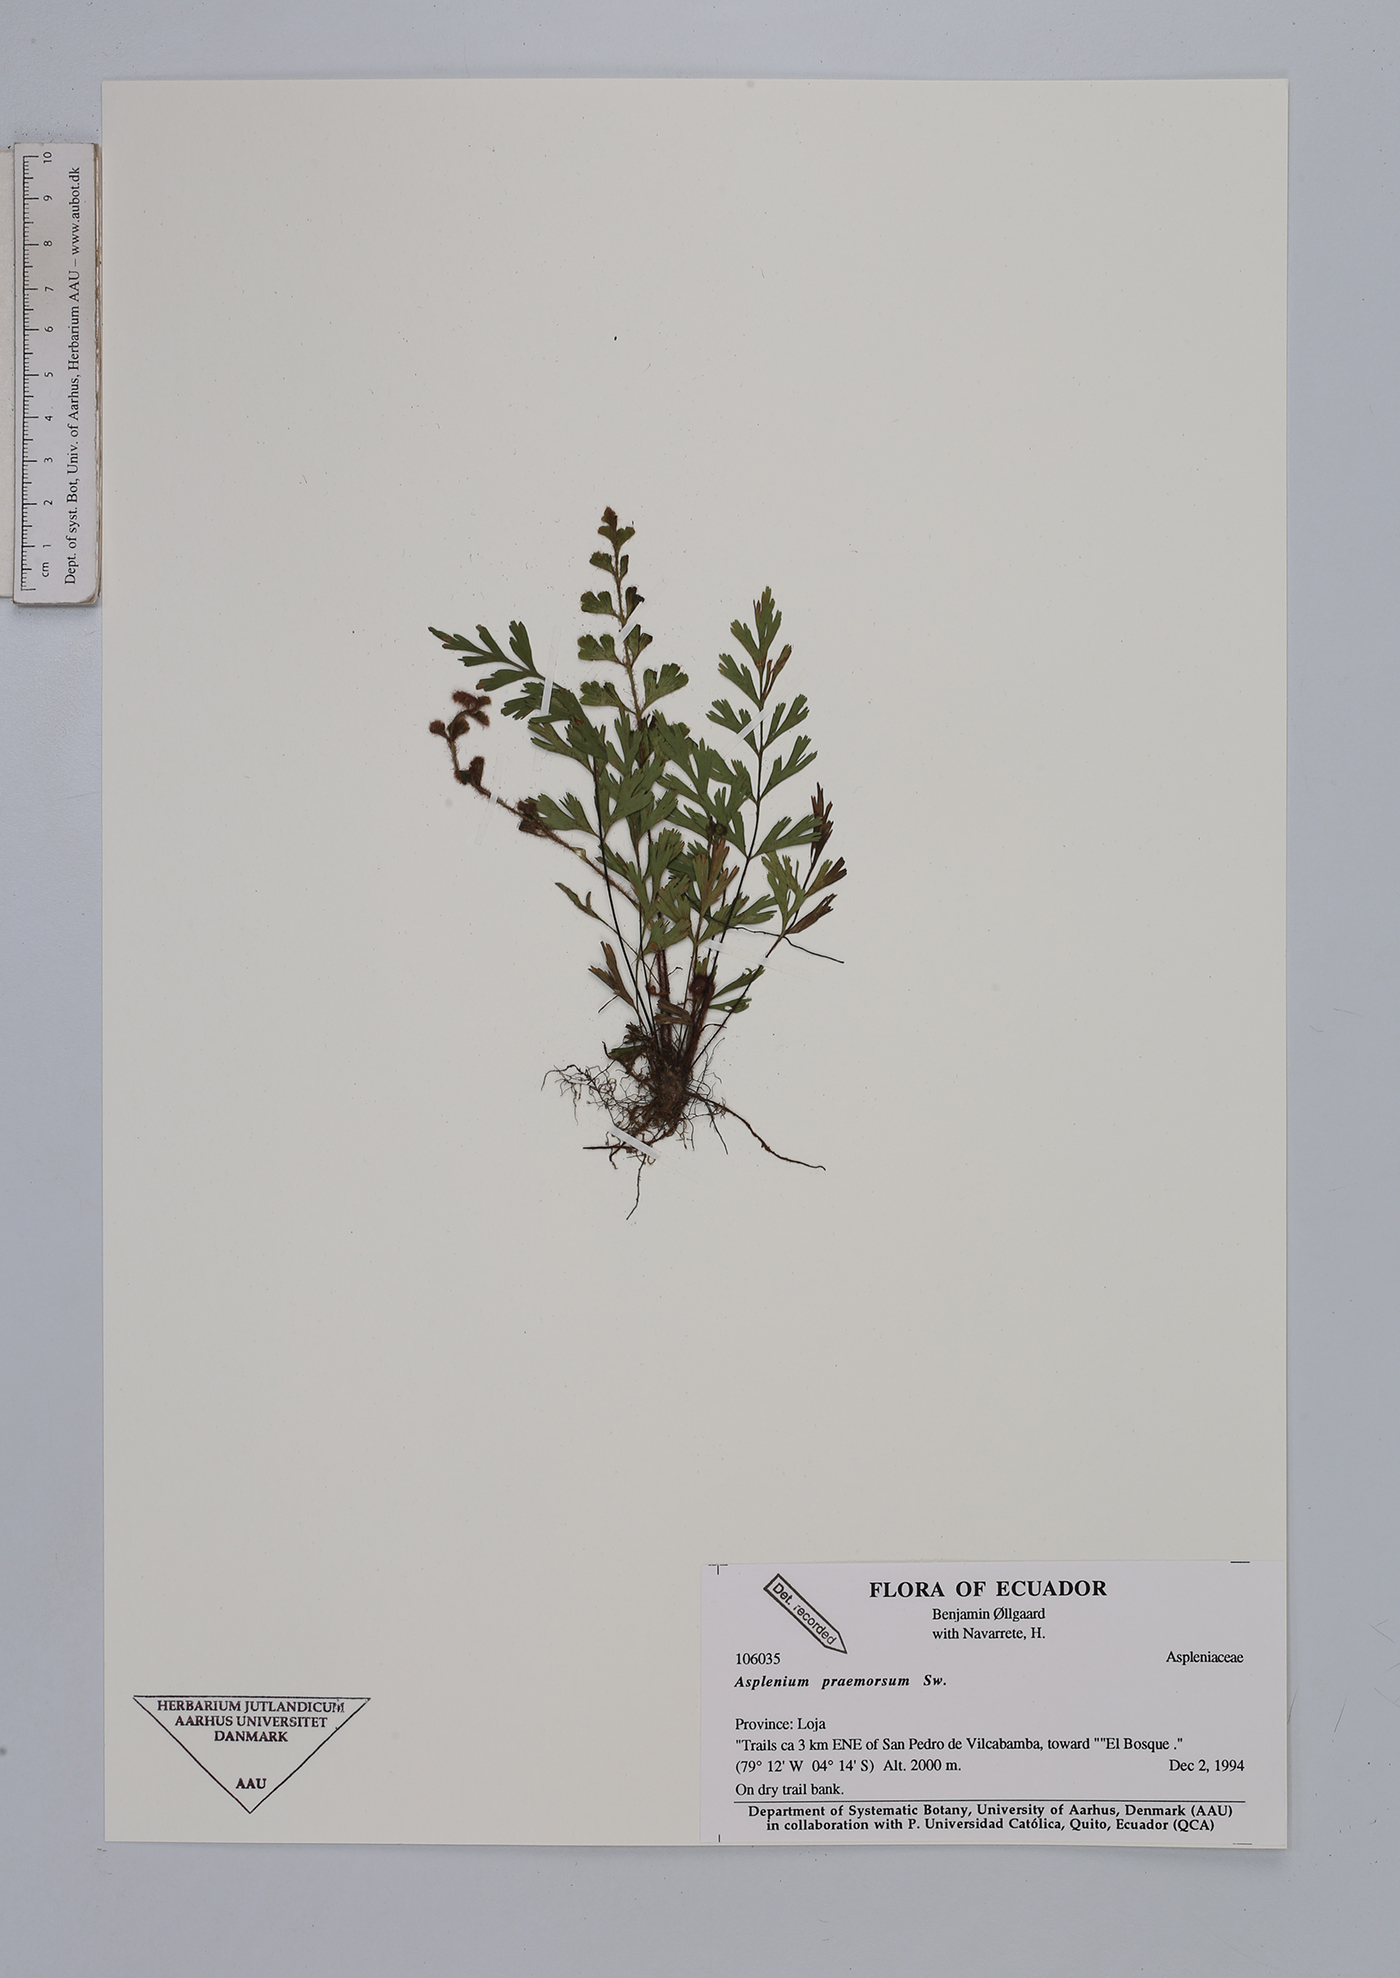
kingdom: Plantae
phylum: Tracheophyta
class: Polypodiopsida
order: Polypodiales
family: Aspleniaceae
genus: Asplenium
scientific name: Asplenium praemorsum
